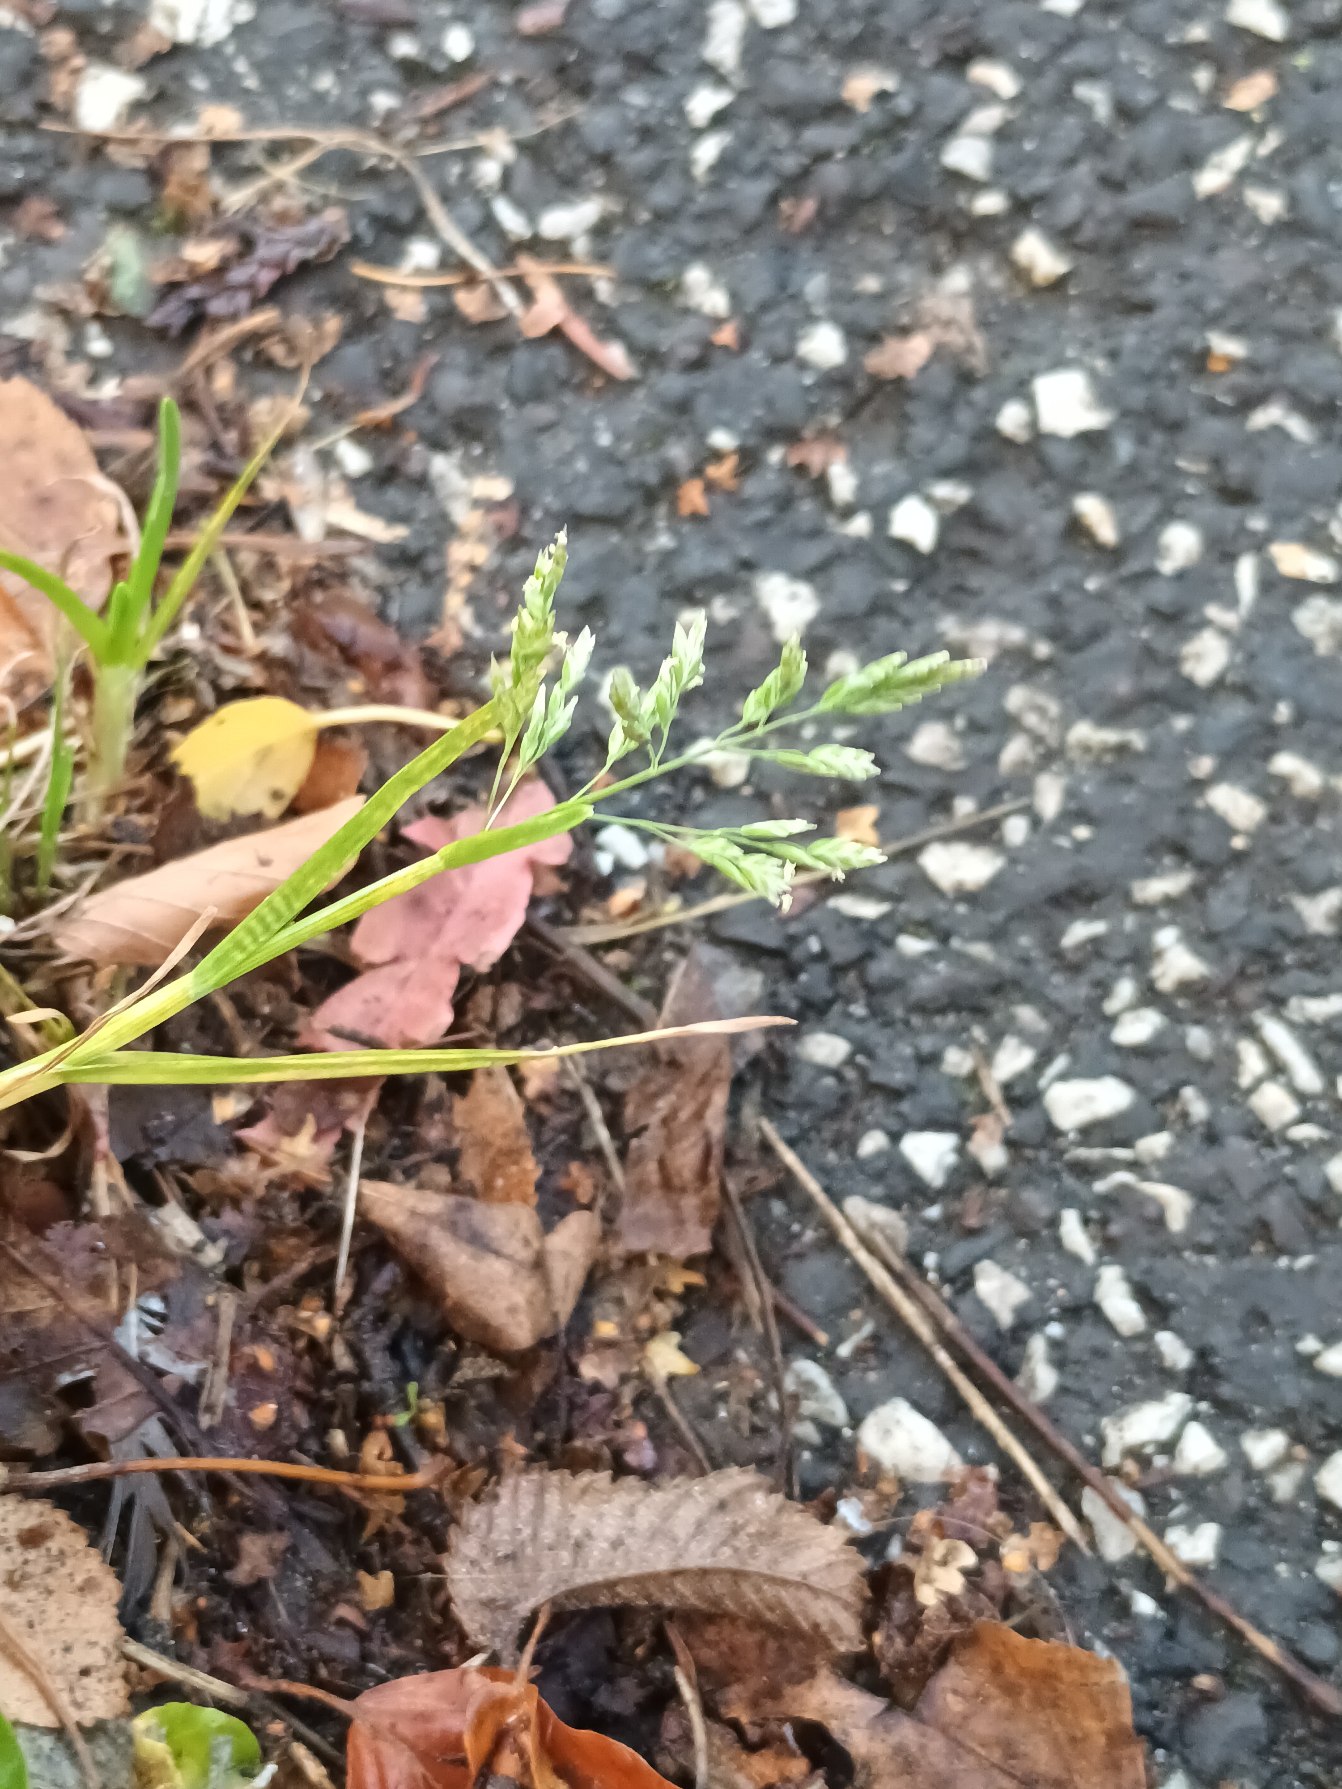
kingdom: Plantae
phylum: Tracheophyta
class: Liliopsida
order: Poales
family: Poaceae
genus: Poa
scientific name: Poa annua
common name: Enårig rapgræs
